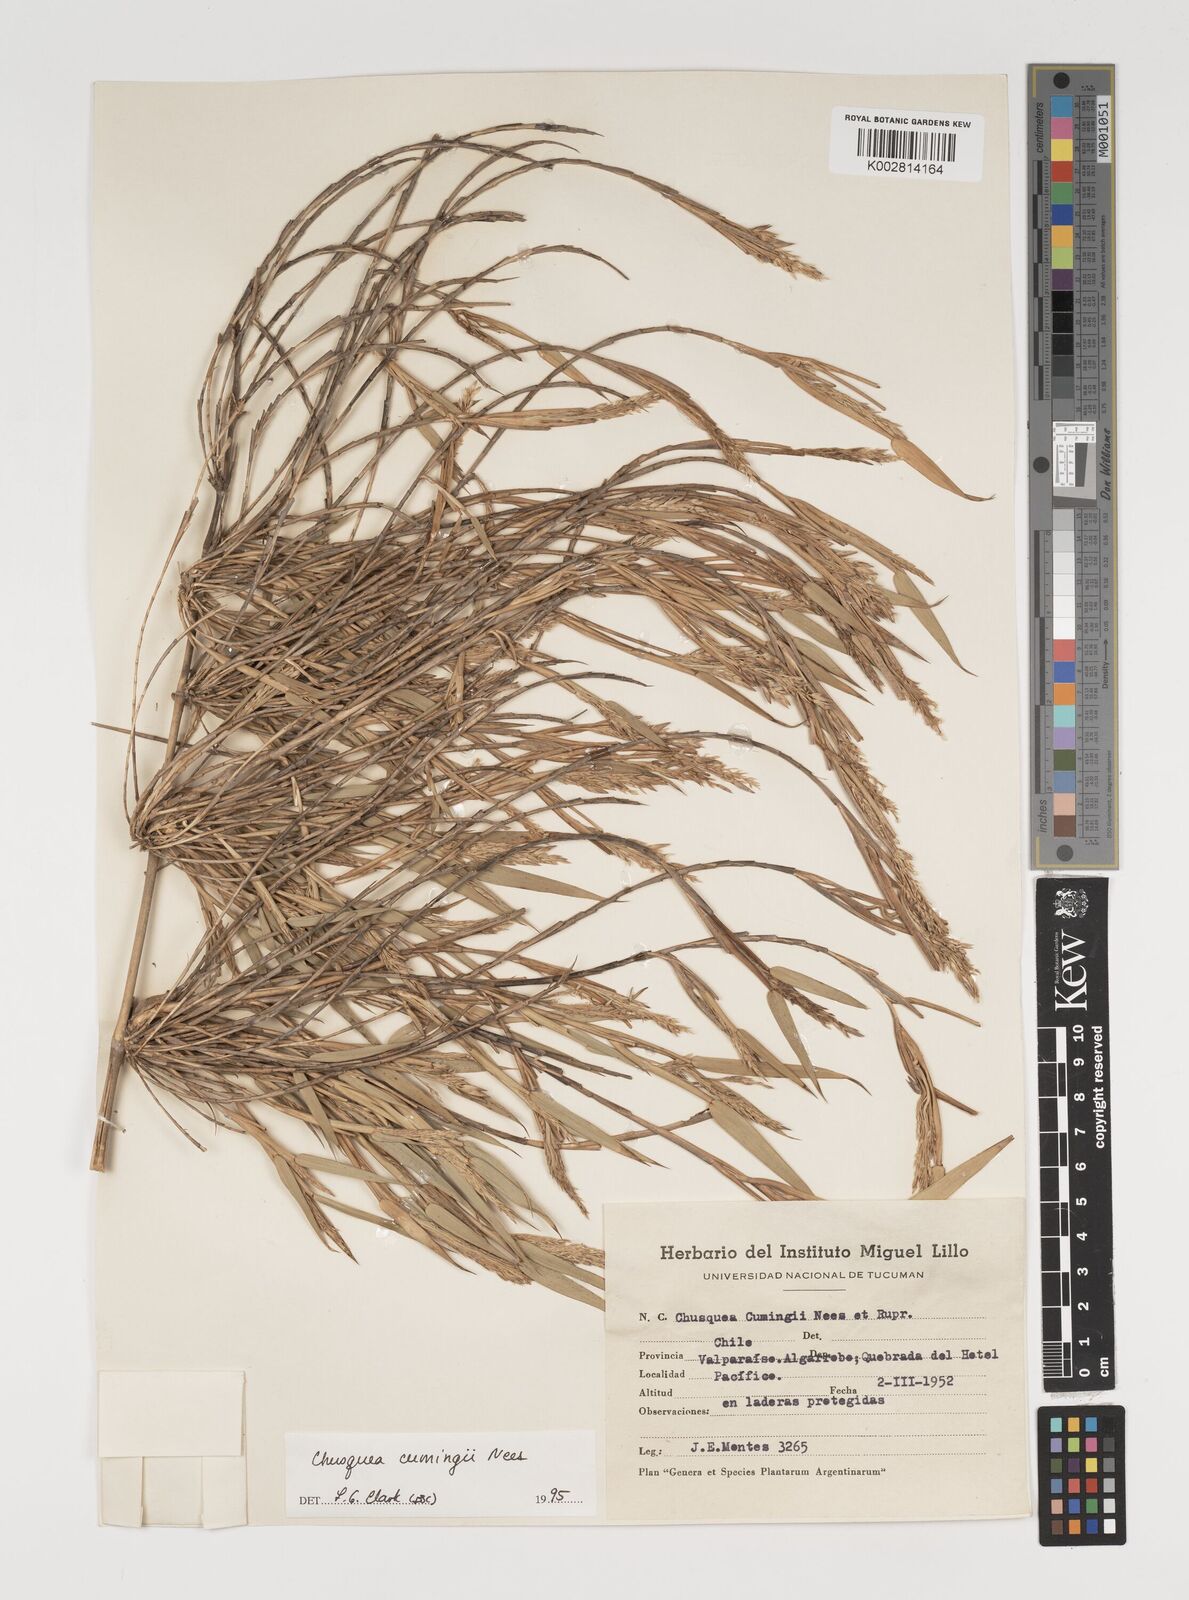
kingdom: Plantae
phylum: Tracheophyta
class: Liliopsida
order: Poales
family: Poaceae
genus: Chusquea
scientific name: Chusquea cumingii
